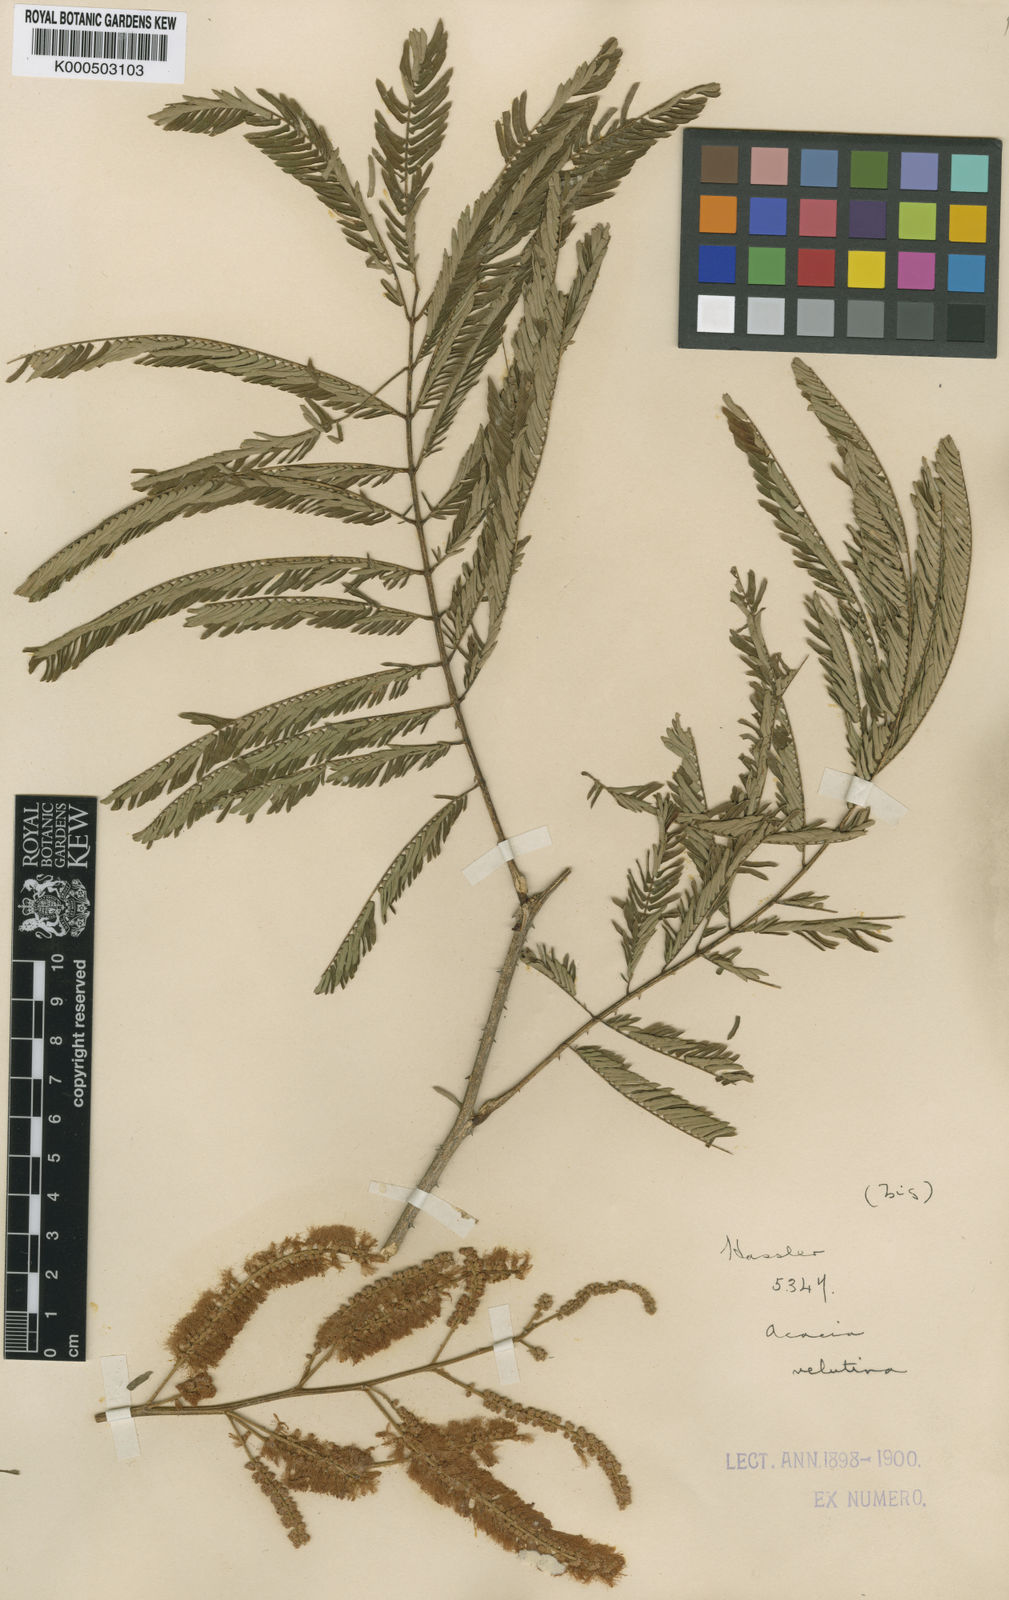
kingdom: Plantae
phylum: Tracheophyta
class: Magnoliopsida
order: Fabales
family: Fabaceae
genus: Senegalia
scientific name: Senegalia velutina
